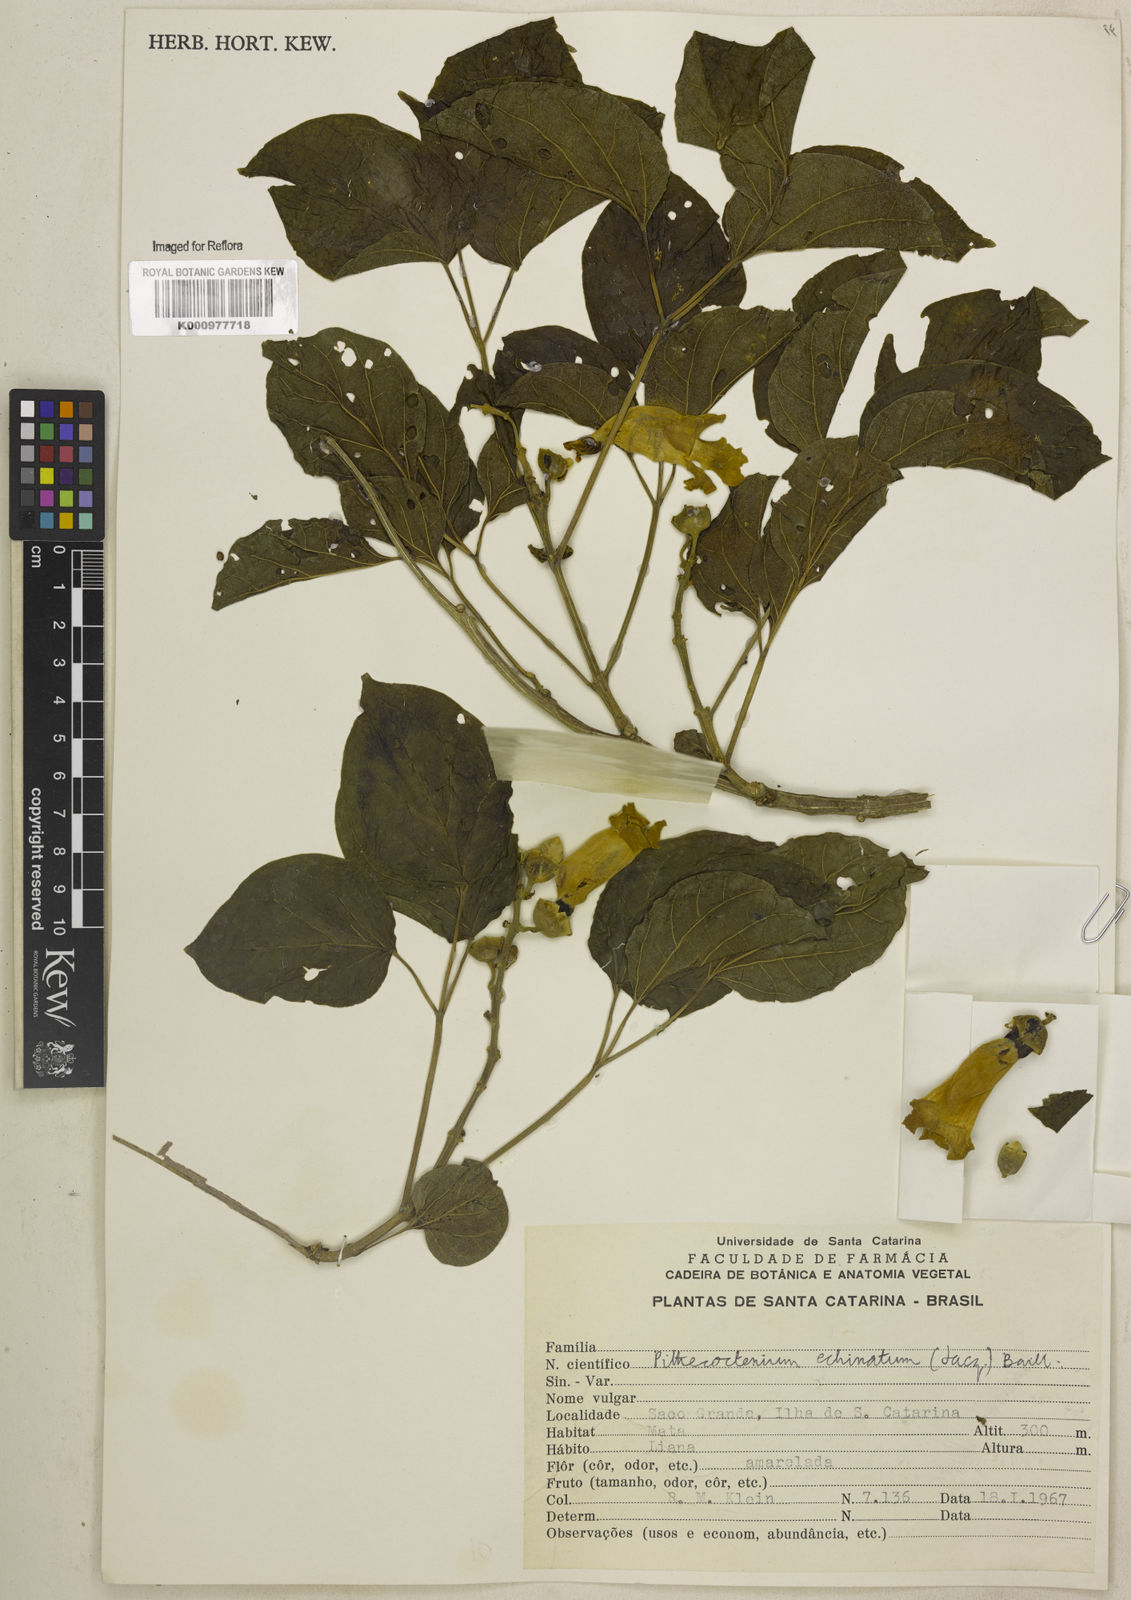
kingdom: Plantae
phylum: Tracheophyta
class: Magnoliopsida
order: Lamiales
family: Bignoniaceae
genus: Amphilophium
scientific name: Amphilophium crucigerum
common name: Monkey comb
